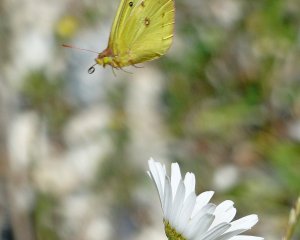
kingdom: Animalia
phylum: Arthropoda
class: Insecta
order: Lepidoptera
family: Pieridae
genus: Colias
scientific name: Colias philodice
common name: Clouded Sulphur
